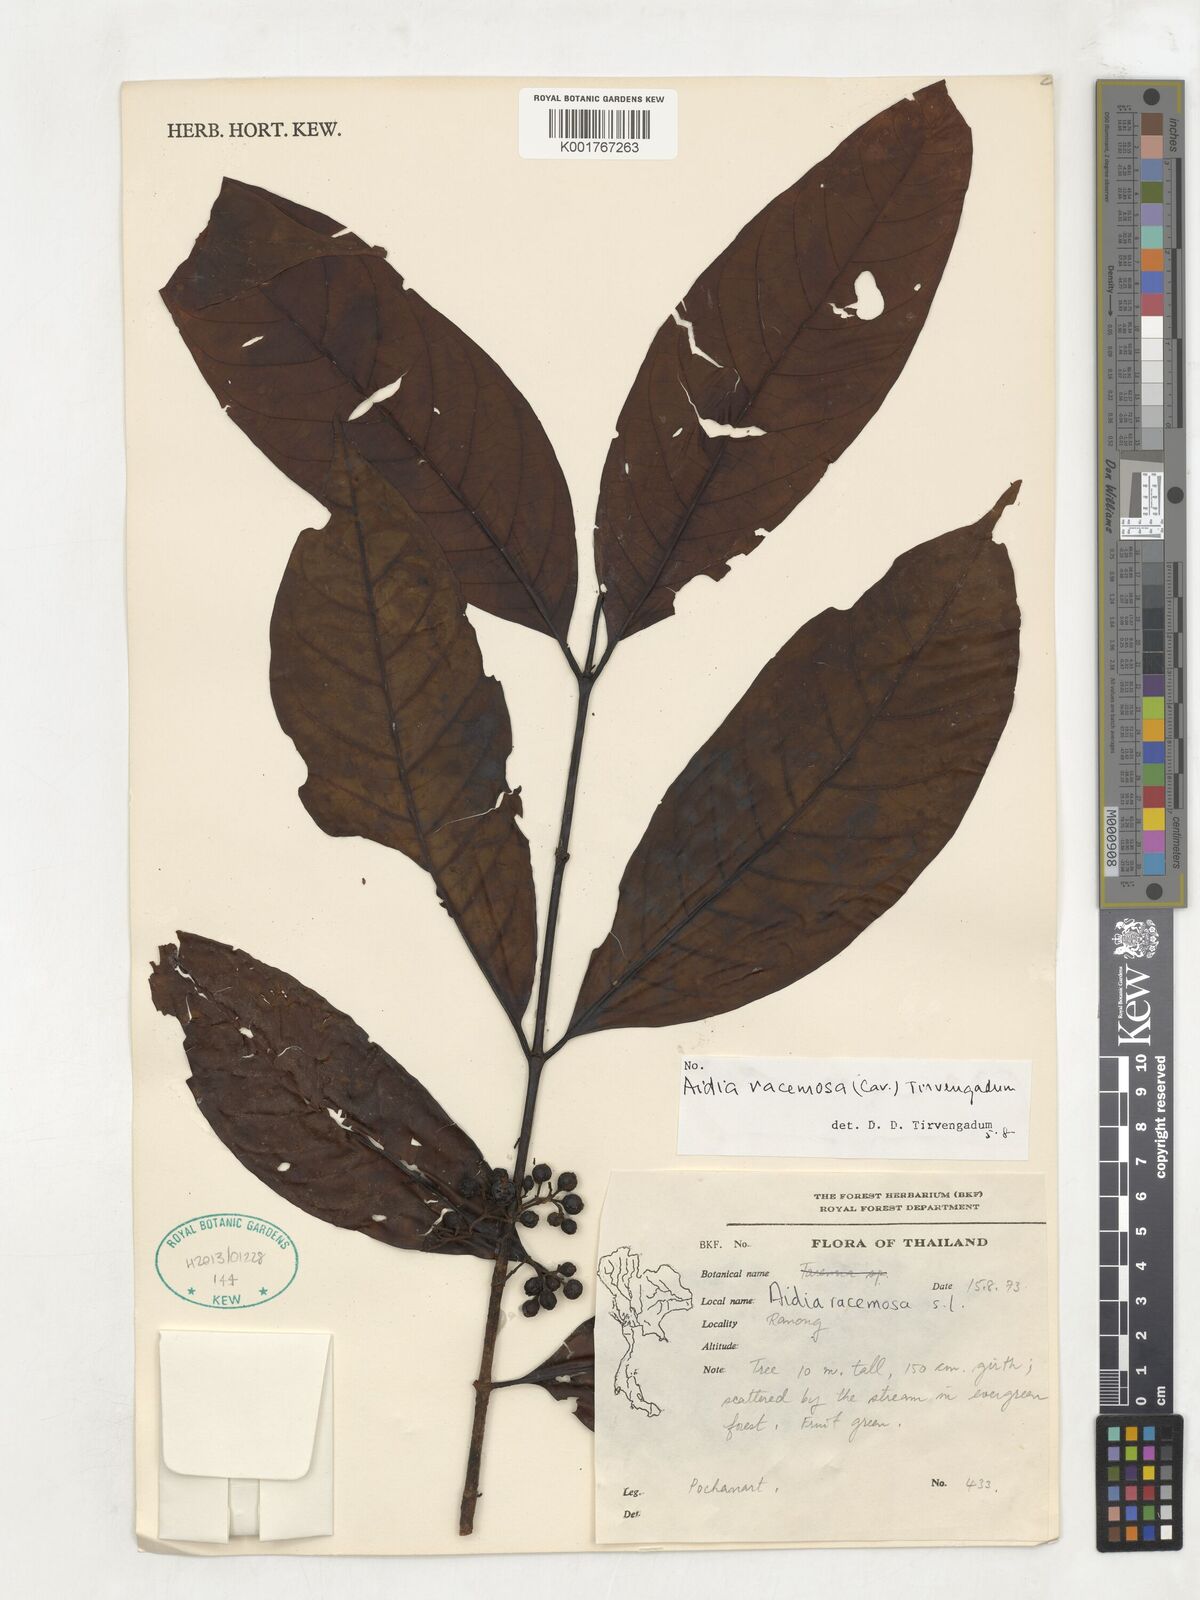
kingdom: Plantae
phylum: Tracheophyta
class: Magnoliopsida
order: Gentianales
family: Rubiaceae
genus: Aidia
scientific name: Aidia racemosa
